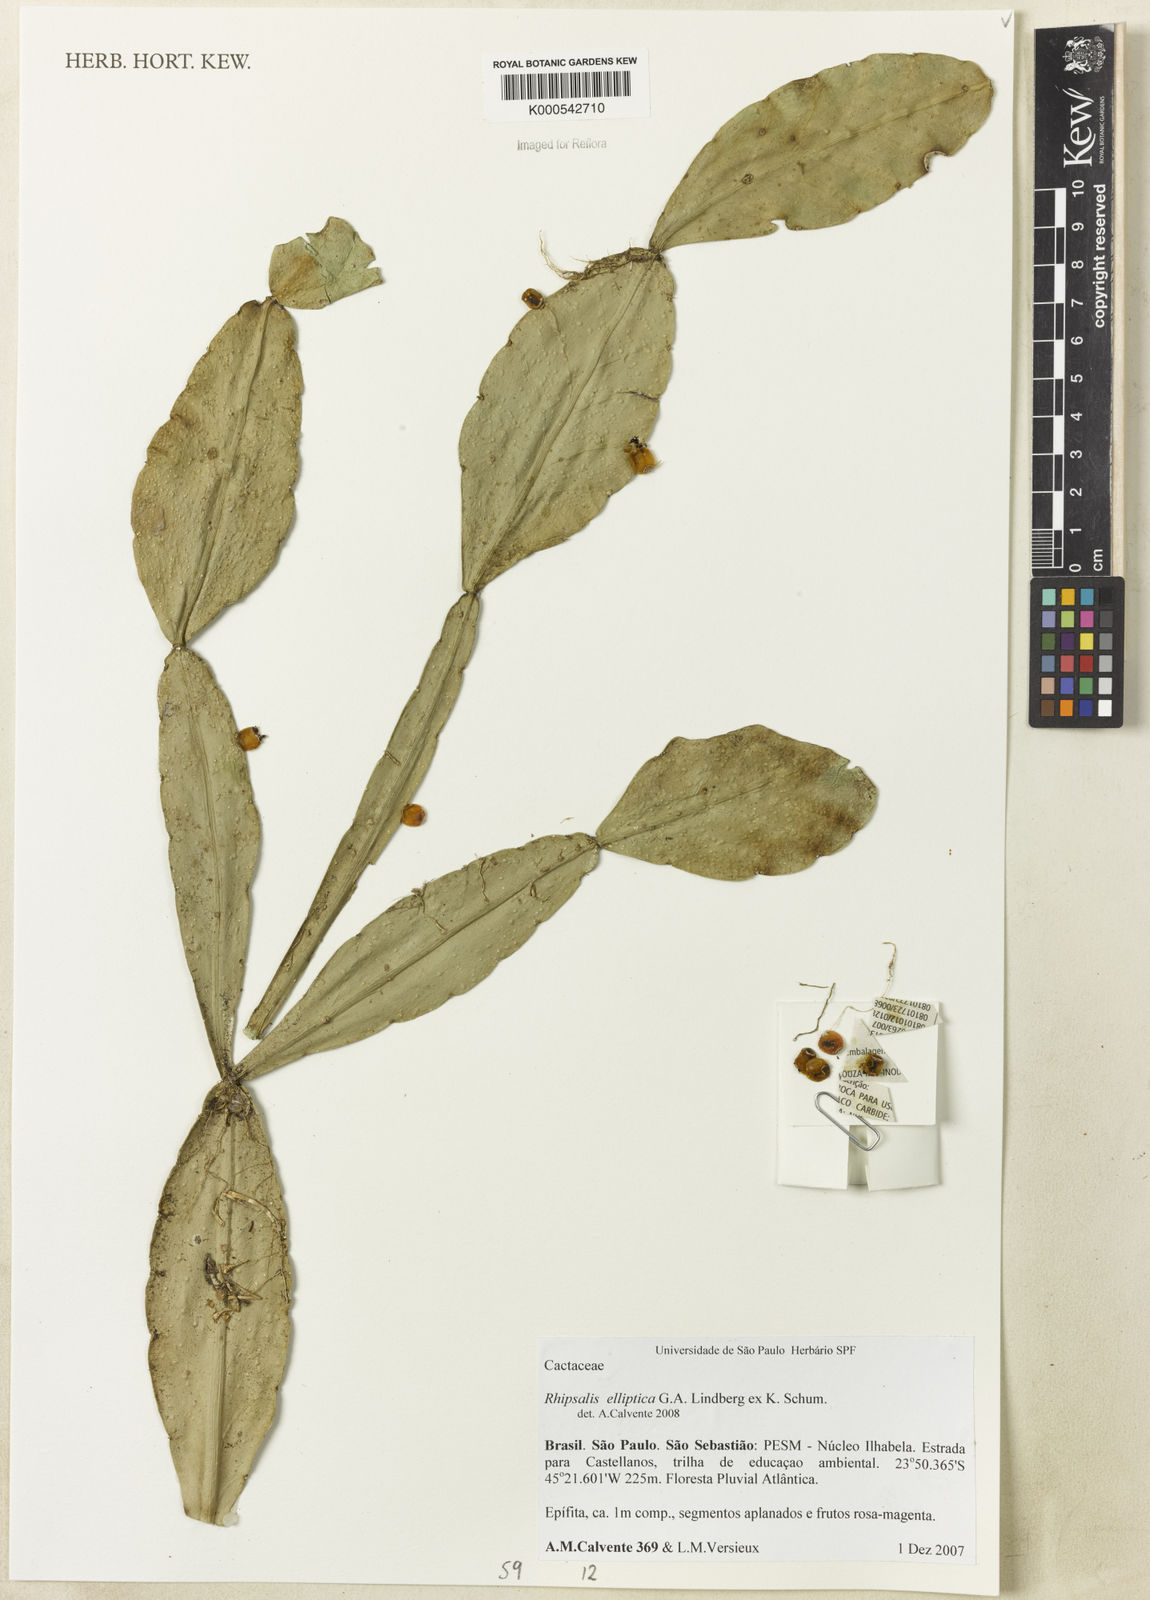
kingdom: Plantae
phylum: Tracheophyta
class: Magnoliopsida
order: Caryophyllales
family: Cactaceae
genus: Rhipsalis
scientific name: Rhipsalis elliptica
